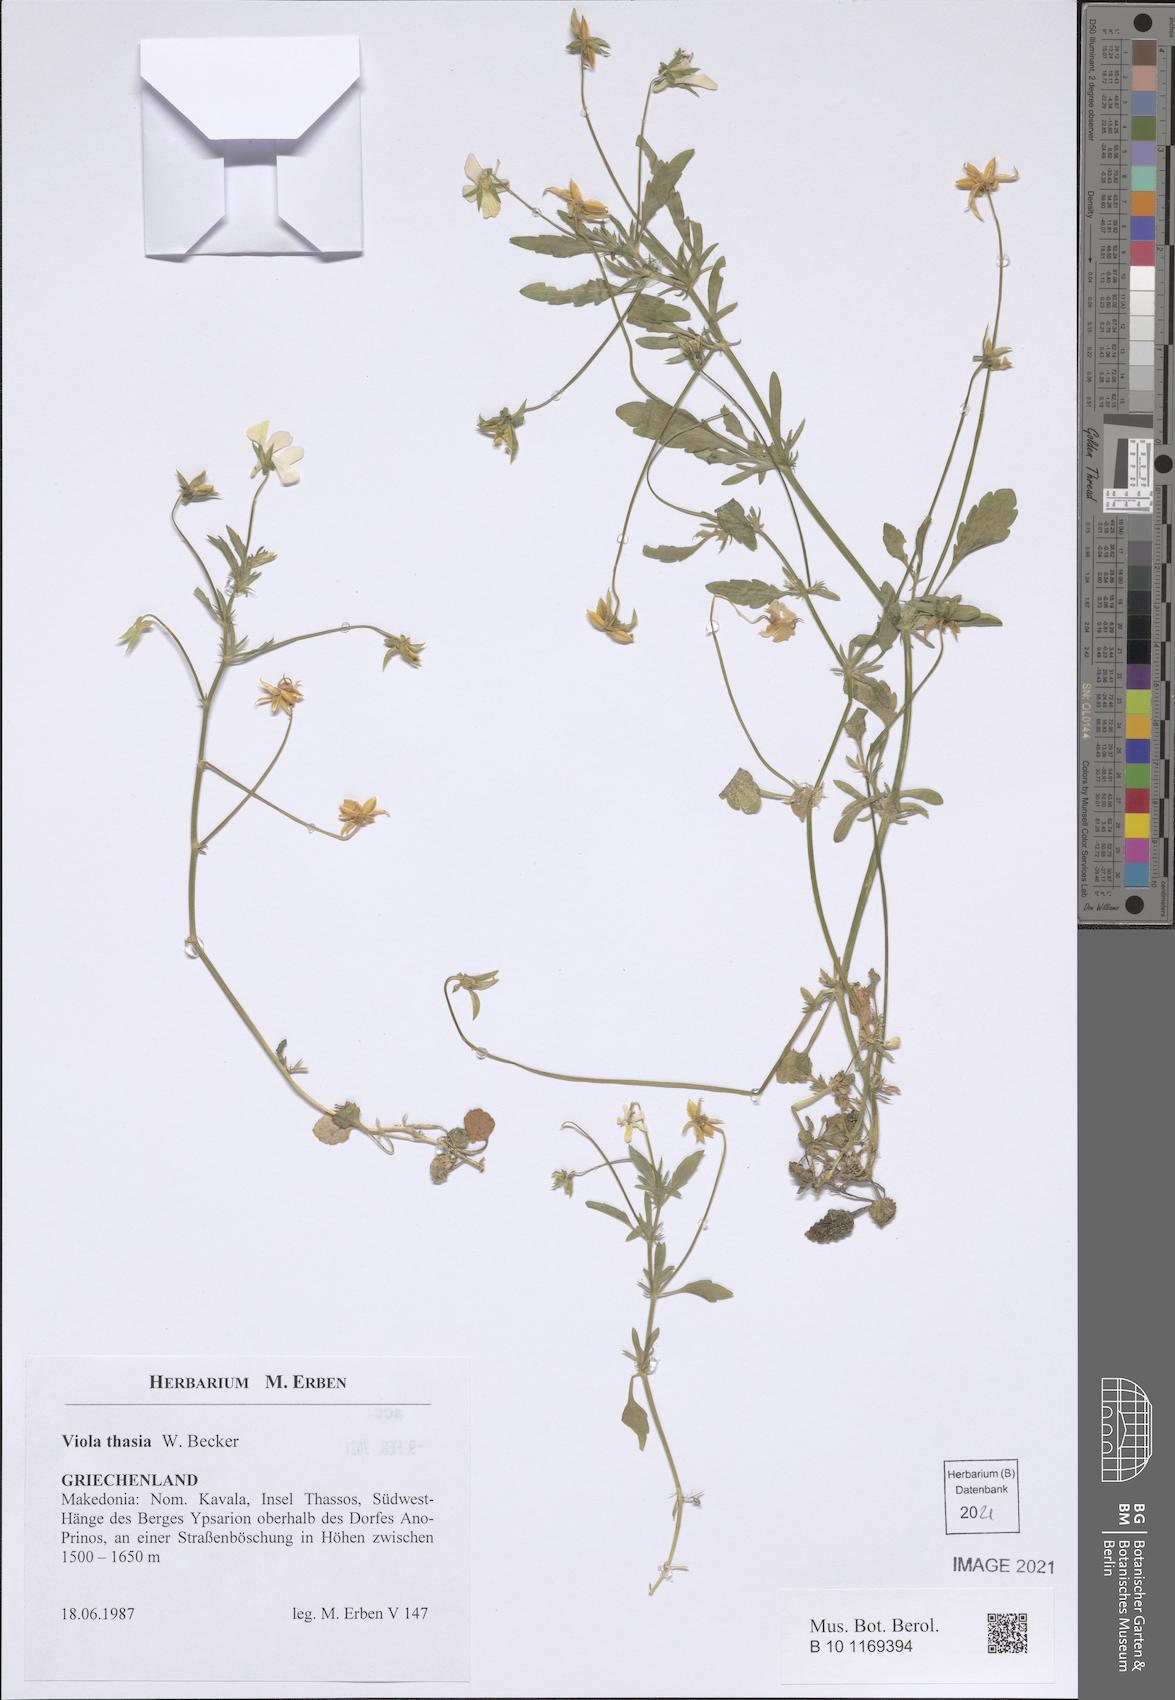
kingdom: Plantae
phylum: Tracheophyta
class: Magnoliopsida
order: Malpighiales
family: Violaceae
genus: Viola
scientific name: Viola tricolor
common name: Pansy
